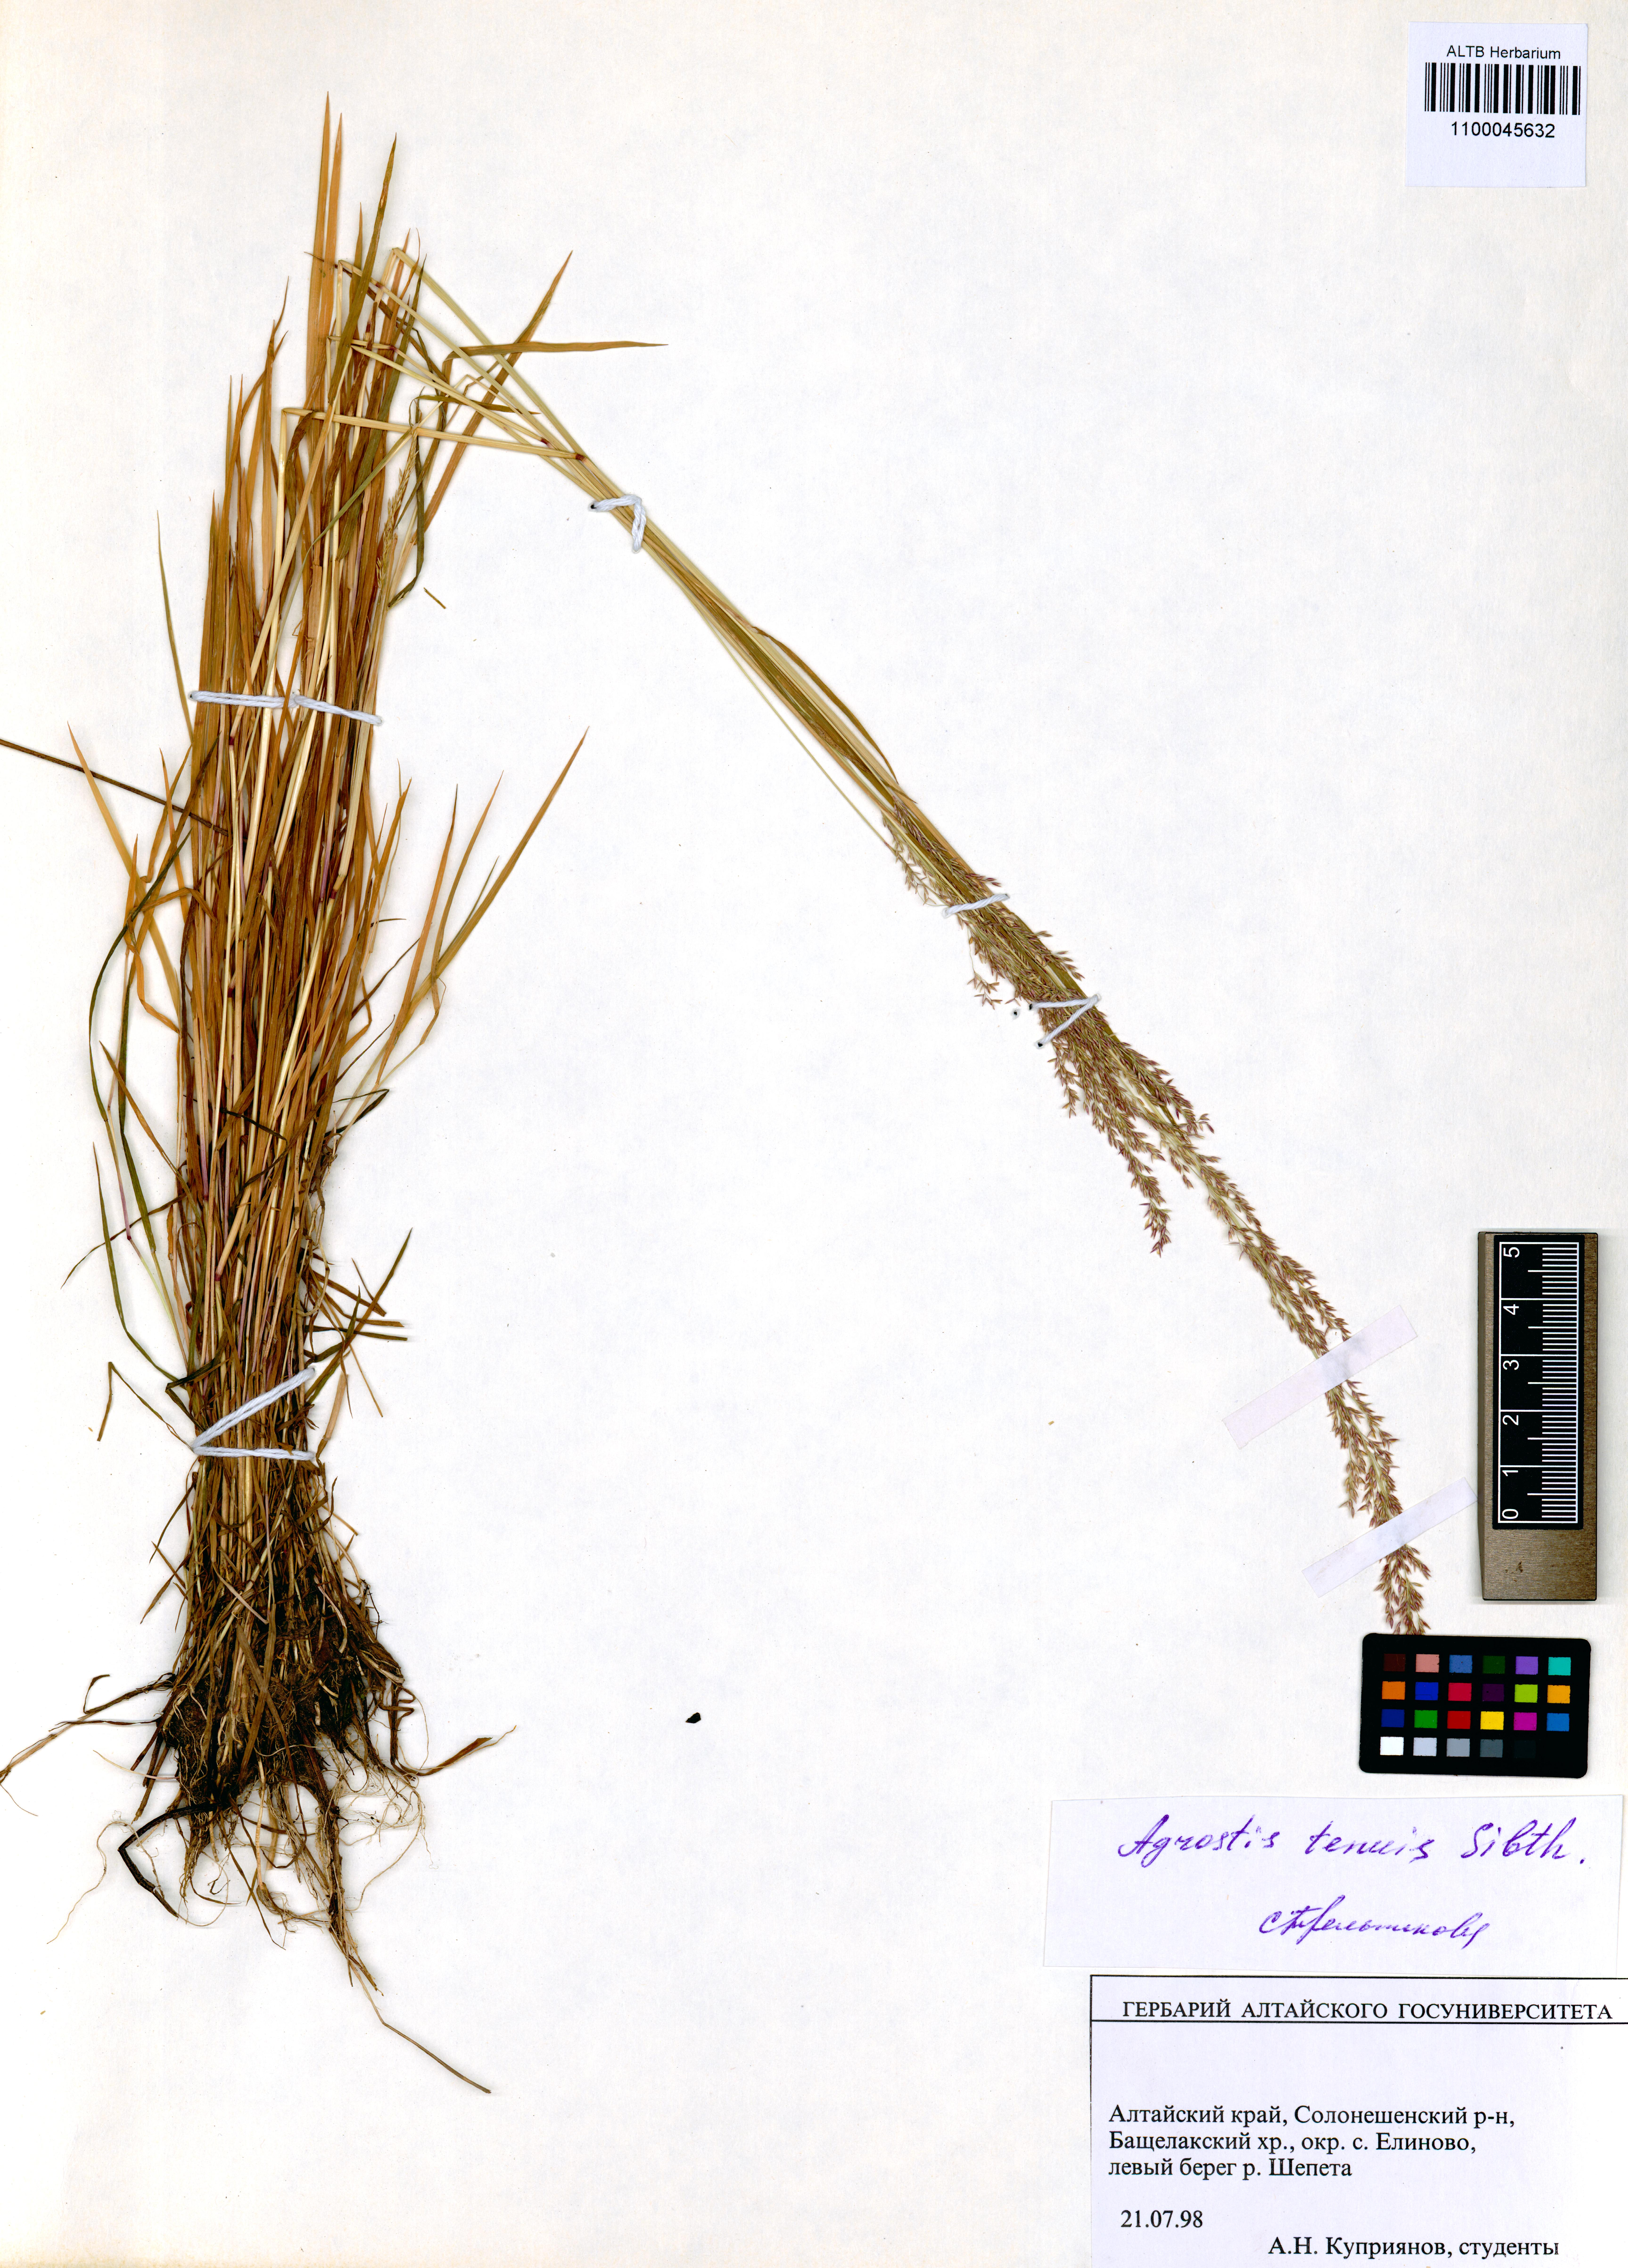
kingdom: Plantae
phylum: Tracheophyta
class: Liliopsida
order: Poales
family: Poaceae
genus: Agrostis
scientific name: Agrostis capillaris
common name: Colonial bentgrass
